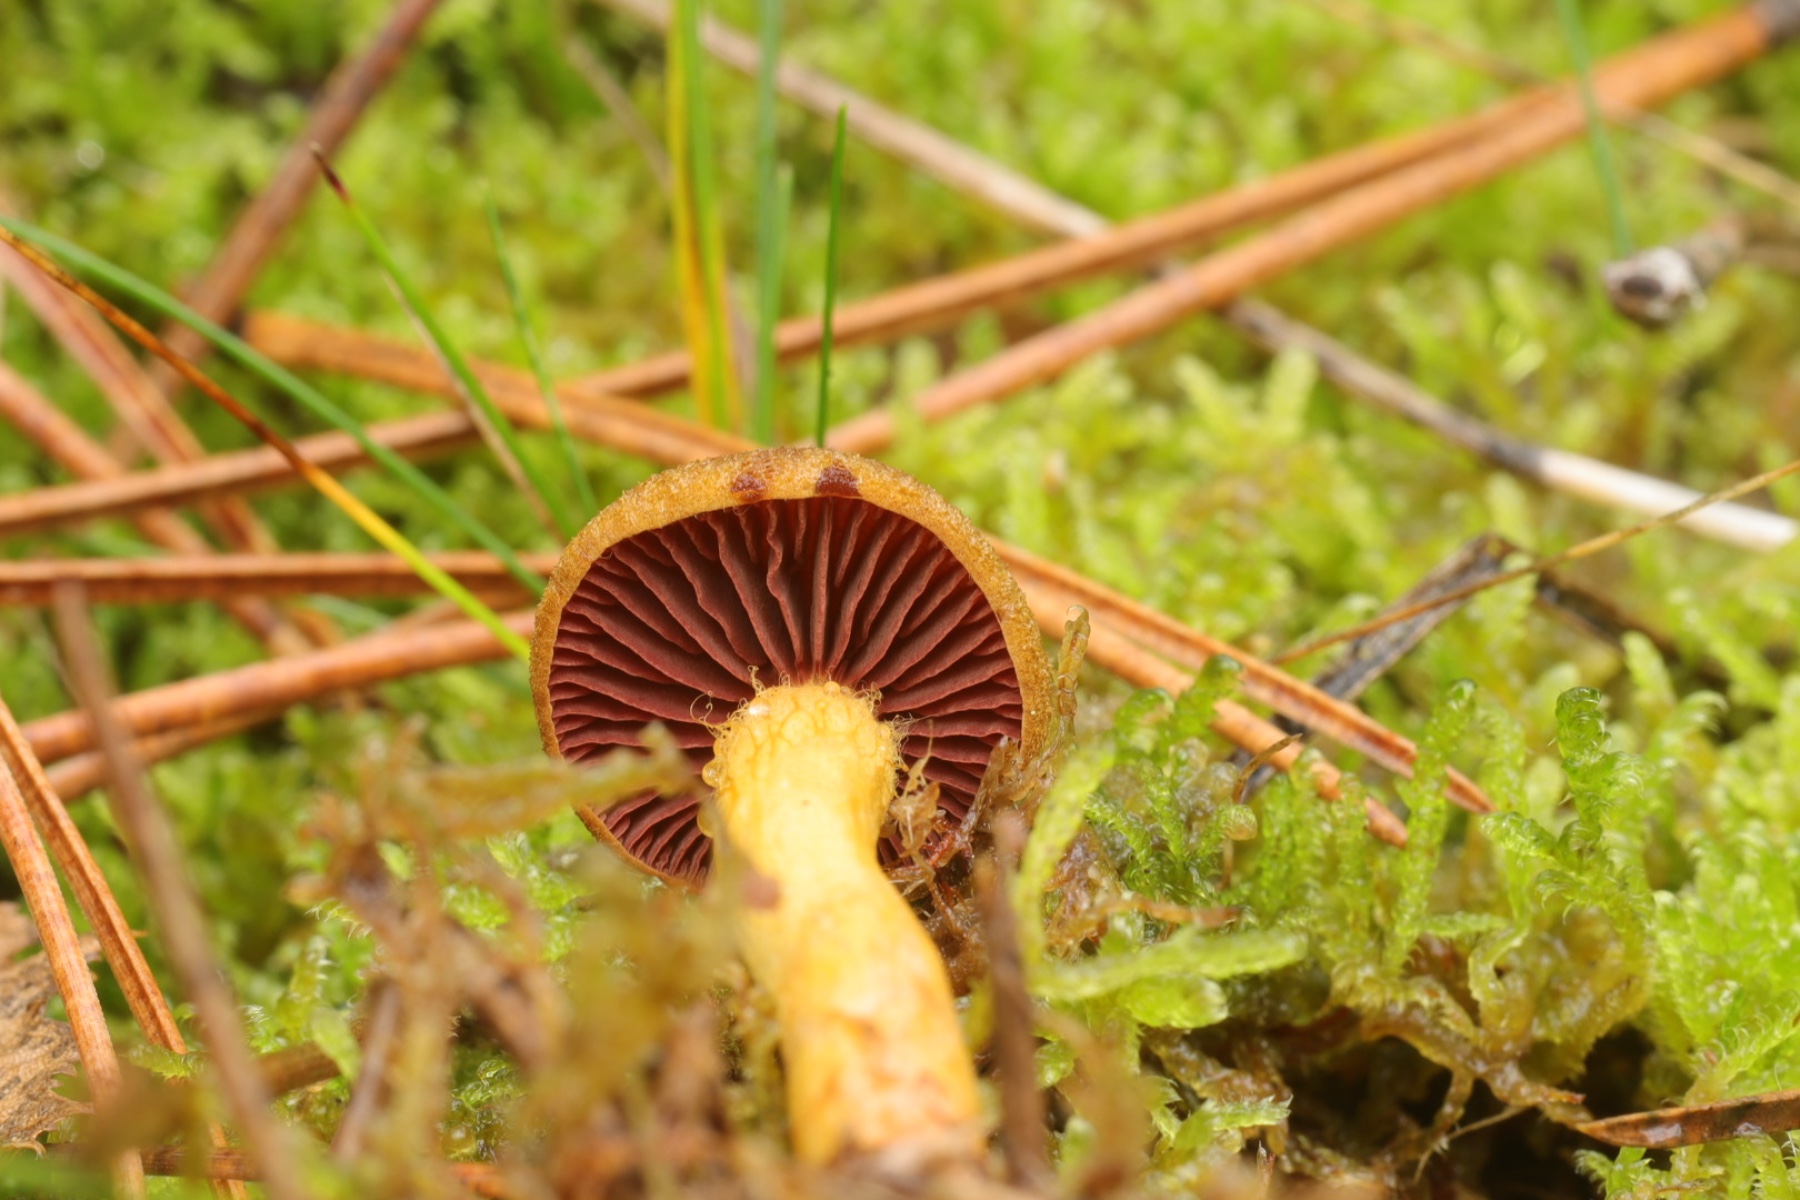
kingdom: Fungi
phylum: Basidiomycota
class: Agaricomycetes
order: Agaricales
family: Cortinariaceae
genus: Cortinarius
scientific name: Cortinarius
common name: cinnoberbladet slørhat
